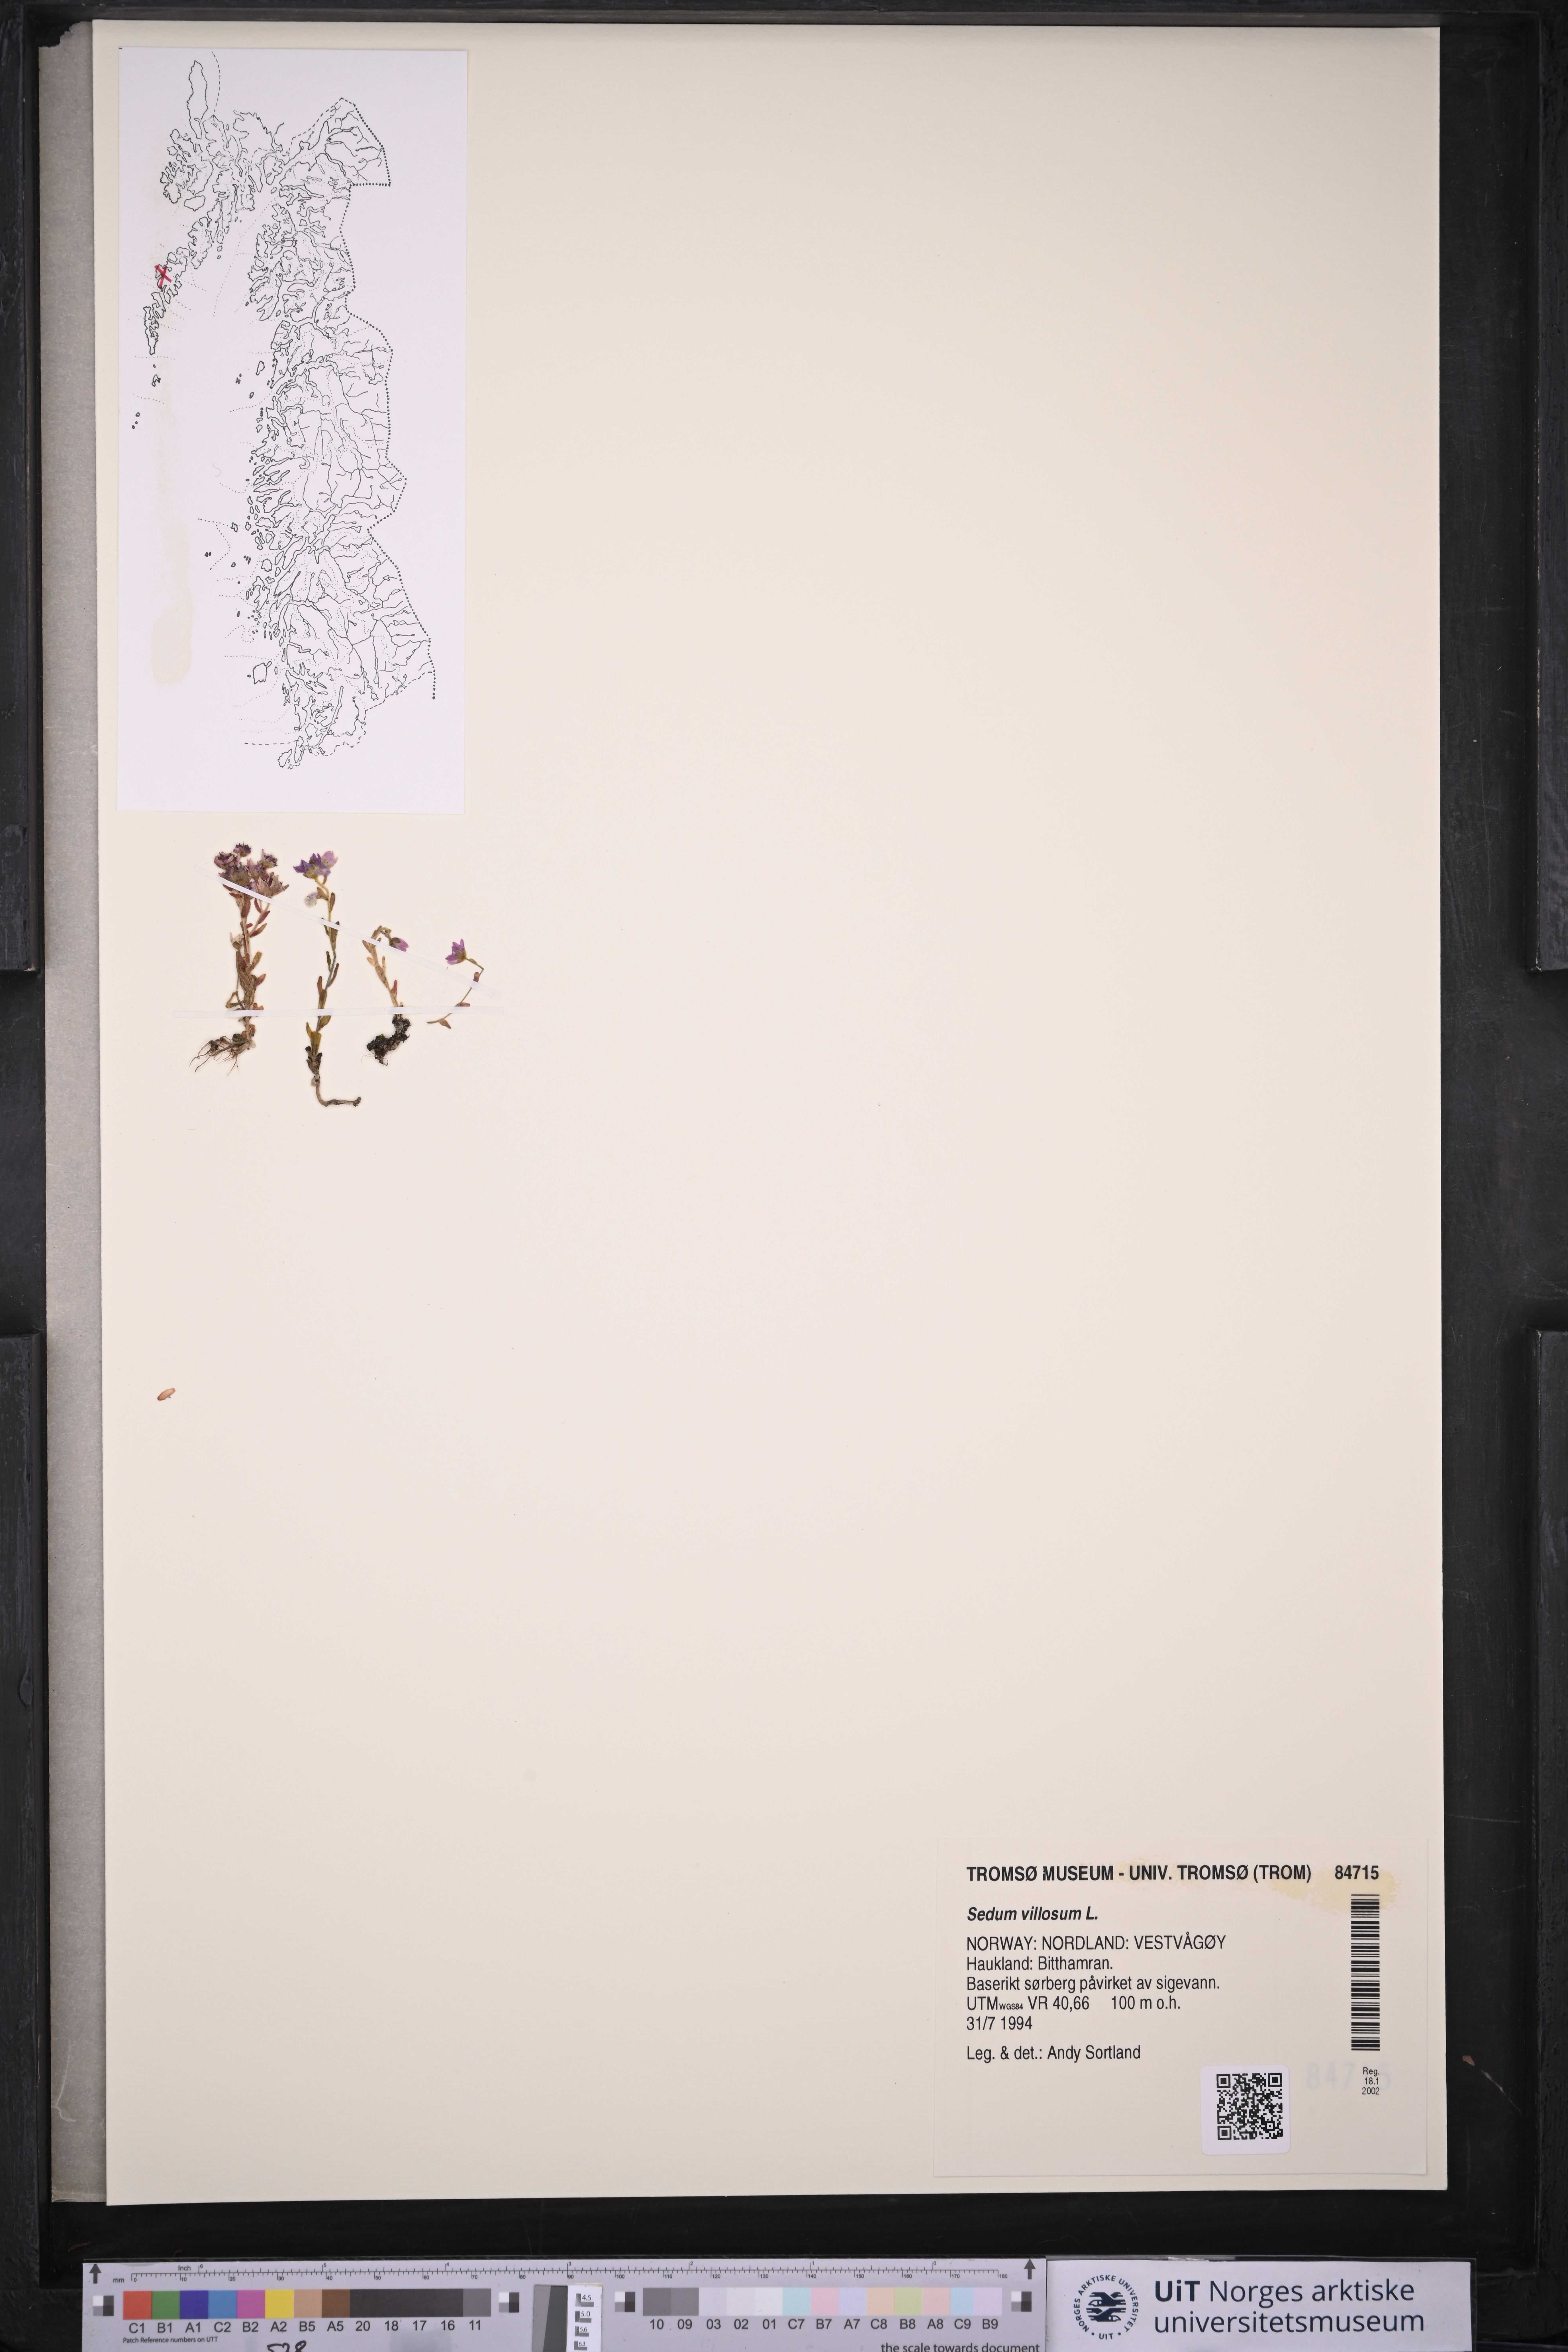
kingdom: Plantae
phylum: Tracheophyta
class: Magnoliopsida
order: Saxifragales
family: Crassulaceae
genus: Sedum
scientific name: Sedum villosum
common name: Hairy stonecrop
